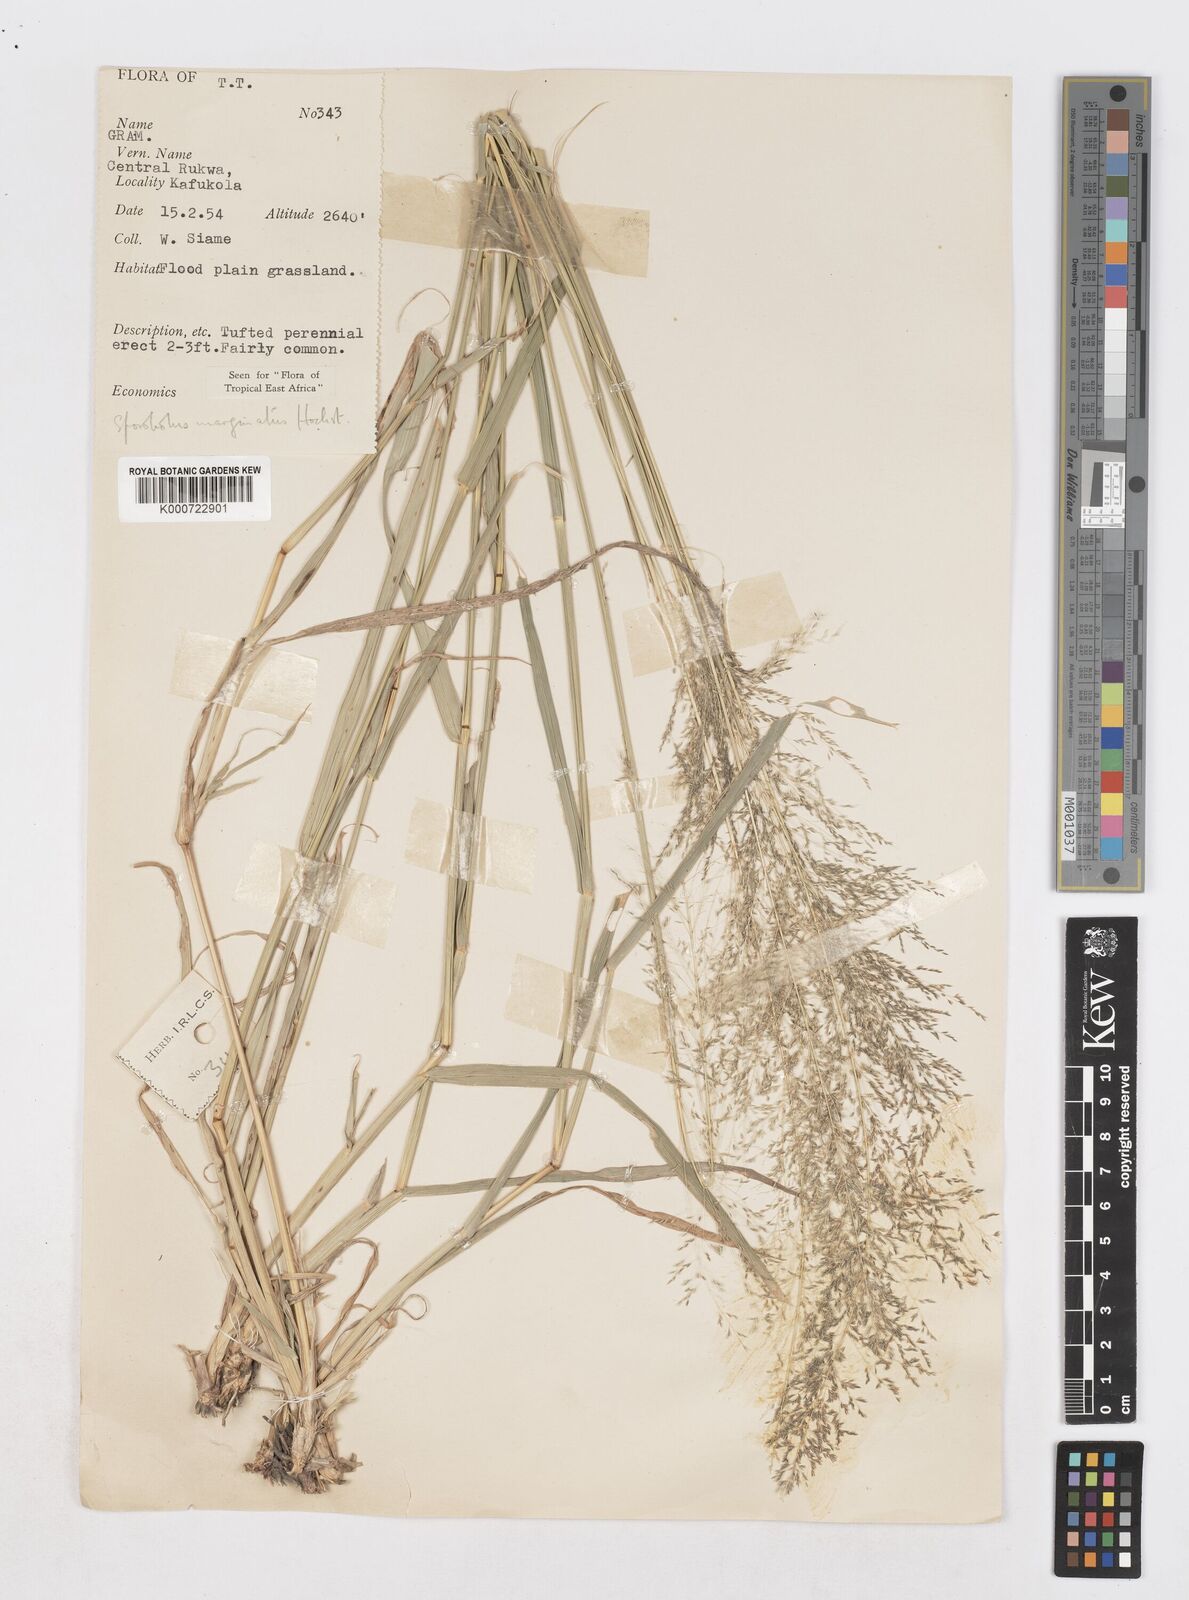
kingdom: Plantae
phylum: Tracheophyta
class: Liliopsida
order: Poales
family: Poaceae
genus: Sporobolus
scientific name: Sporobolus ioclados
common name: Pan dropseed
